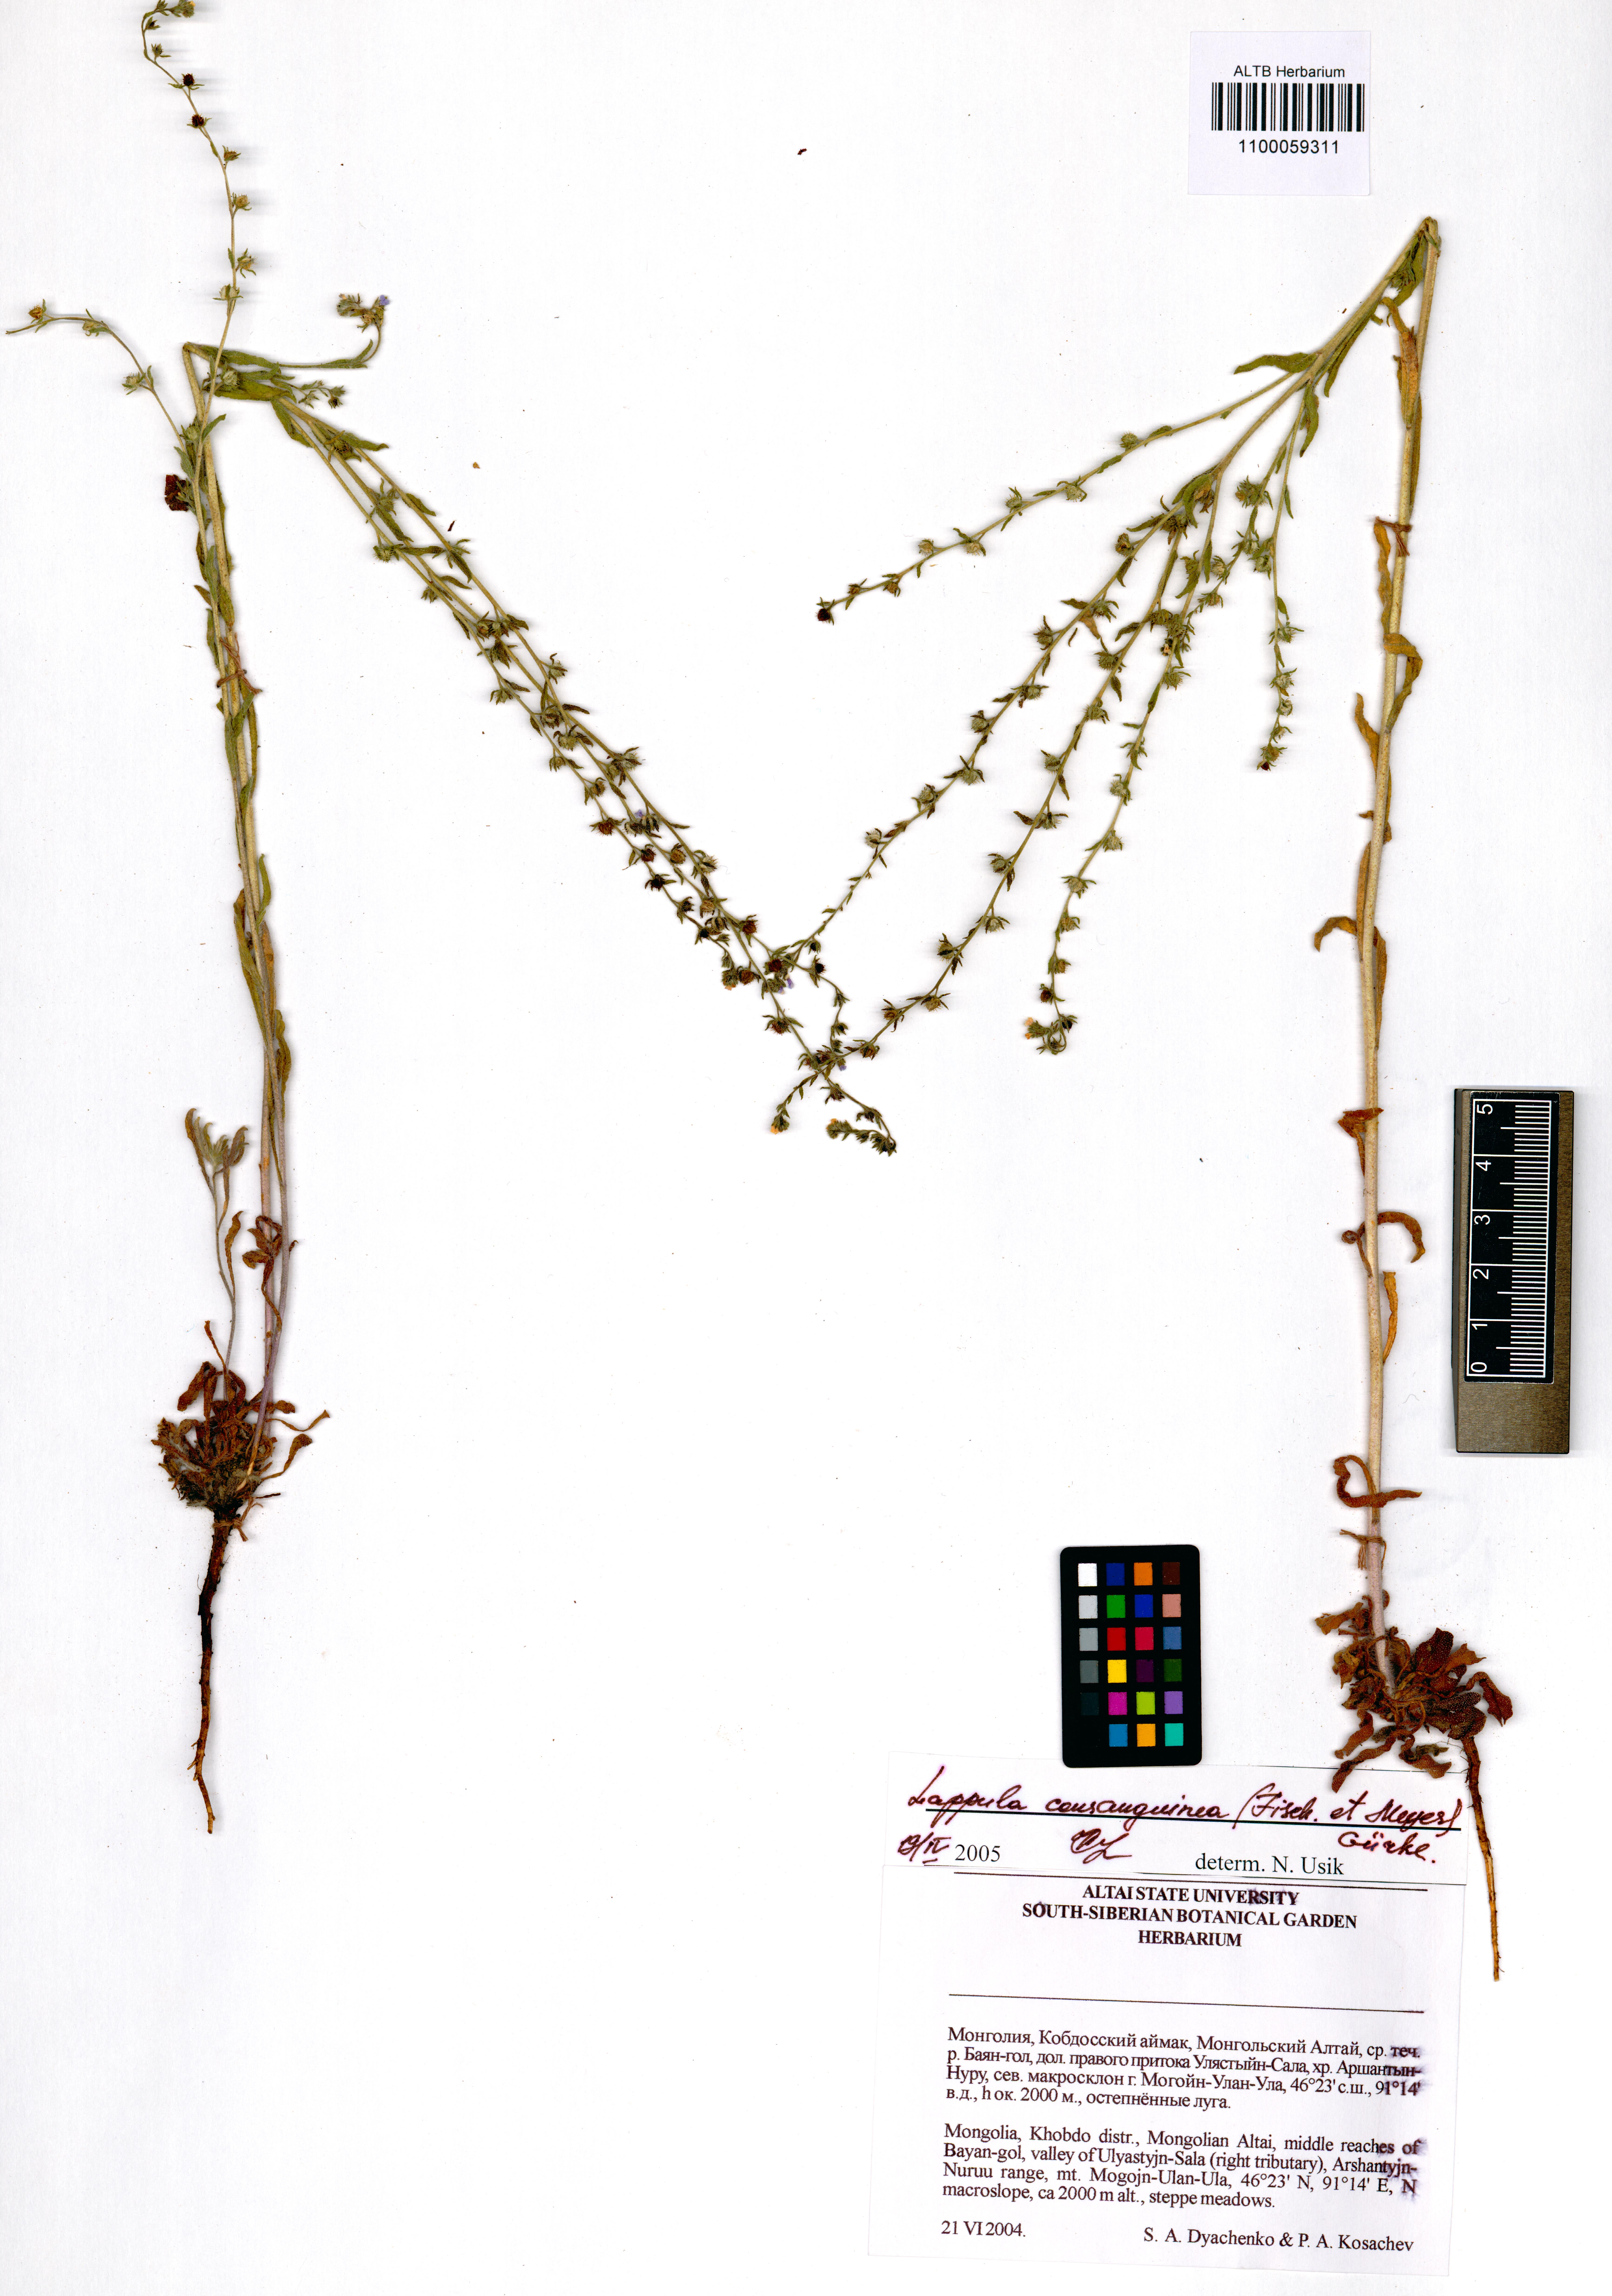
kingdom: Plantae
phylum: Tracheophyta
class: Magnoliopsida
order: Boraginales
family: Boraginaceae
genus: Lappula
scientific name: Lappula squarrosa
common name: European stickseed
